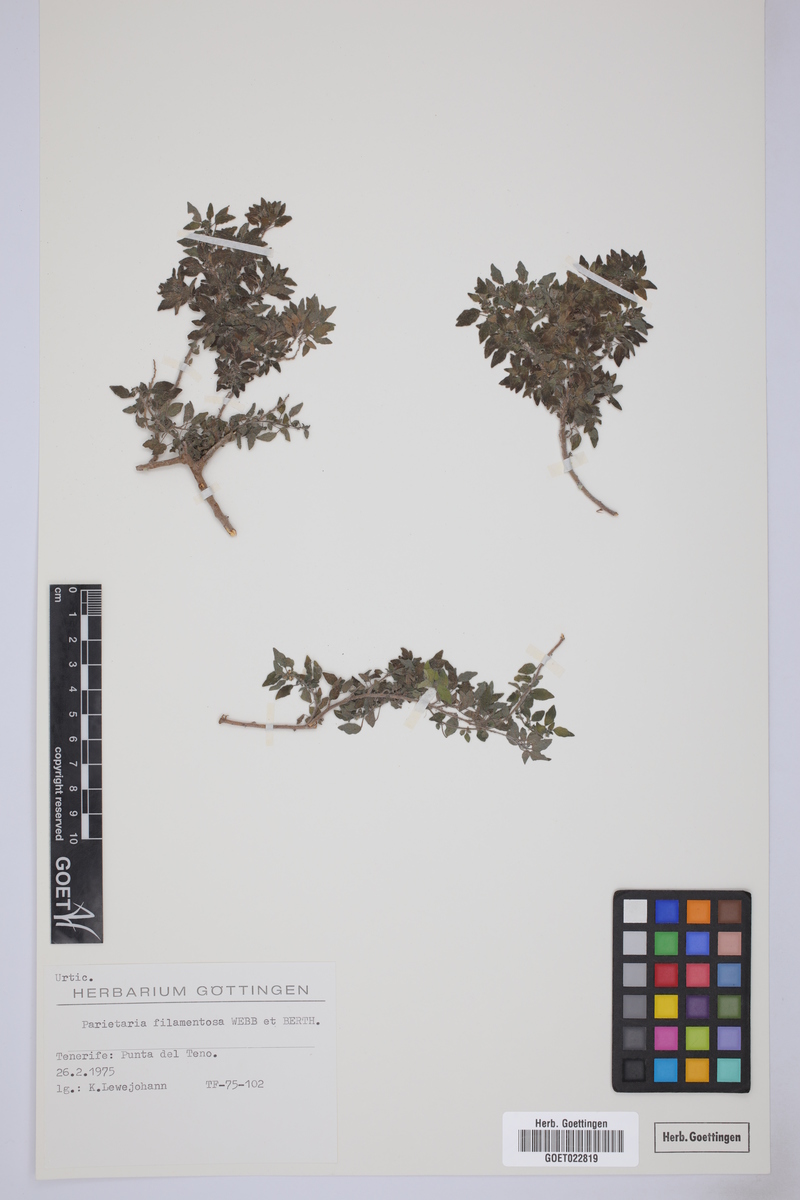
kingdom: Plantae
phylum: Tracheophyta
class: Magnoliopsida
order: Rosales
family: Urticaceae
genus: Parietaria
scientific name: Parietaria filamentosa
